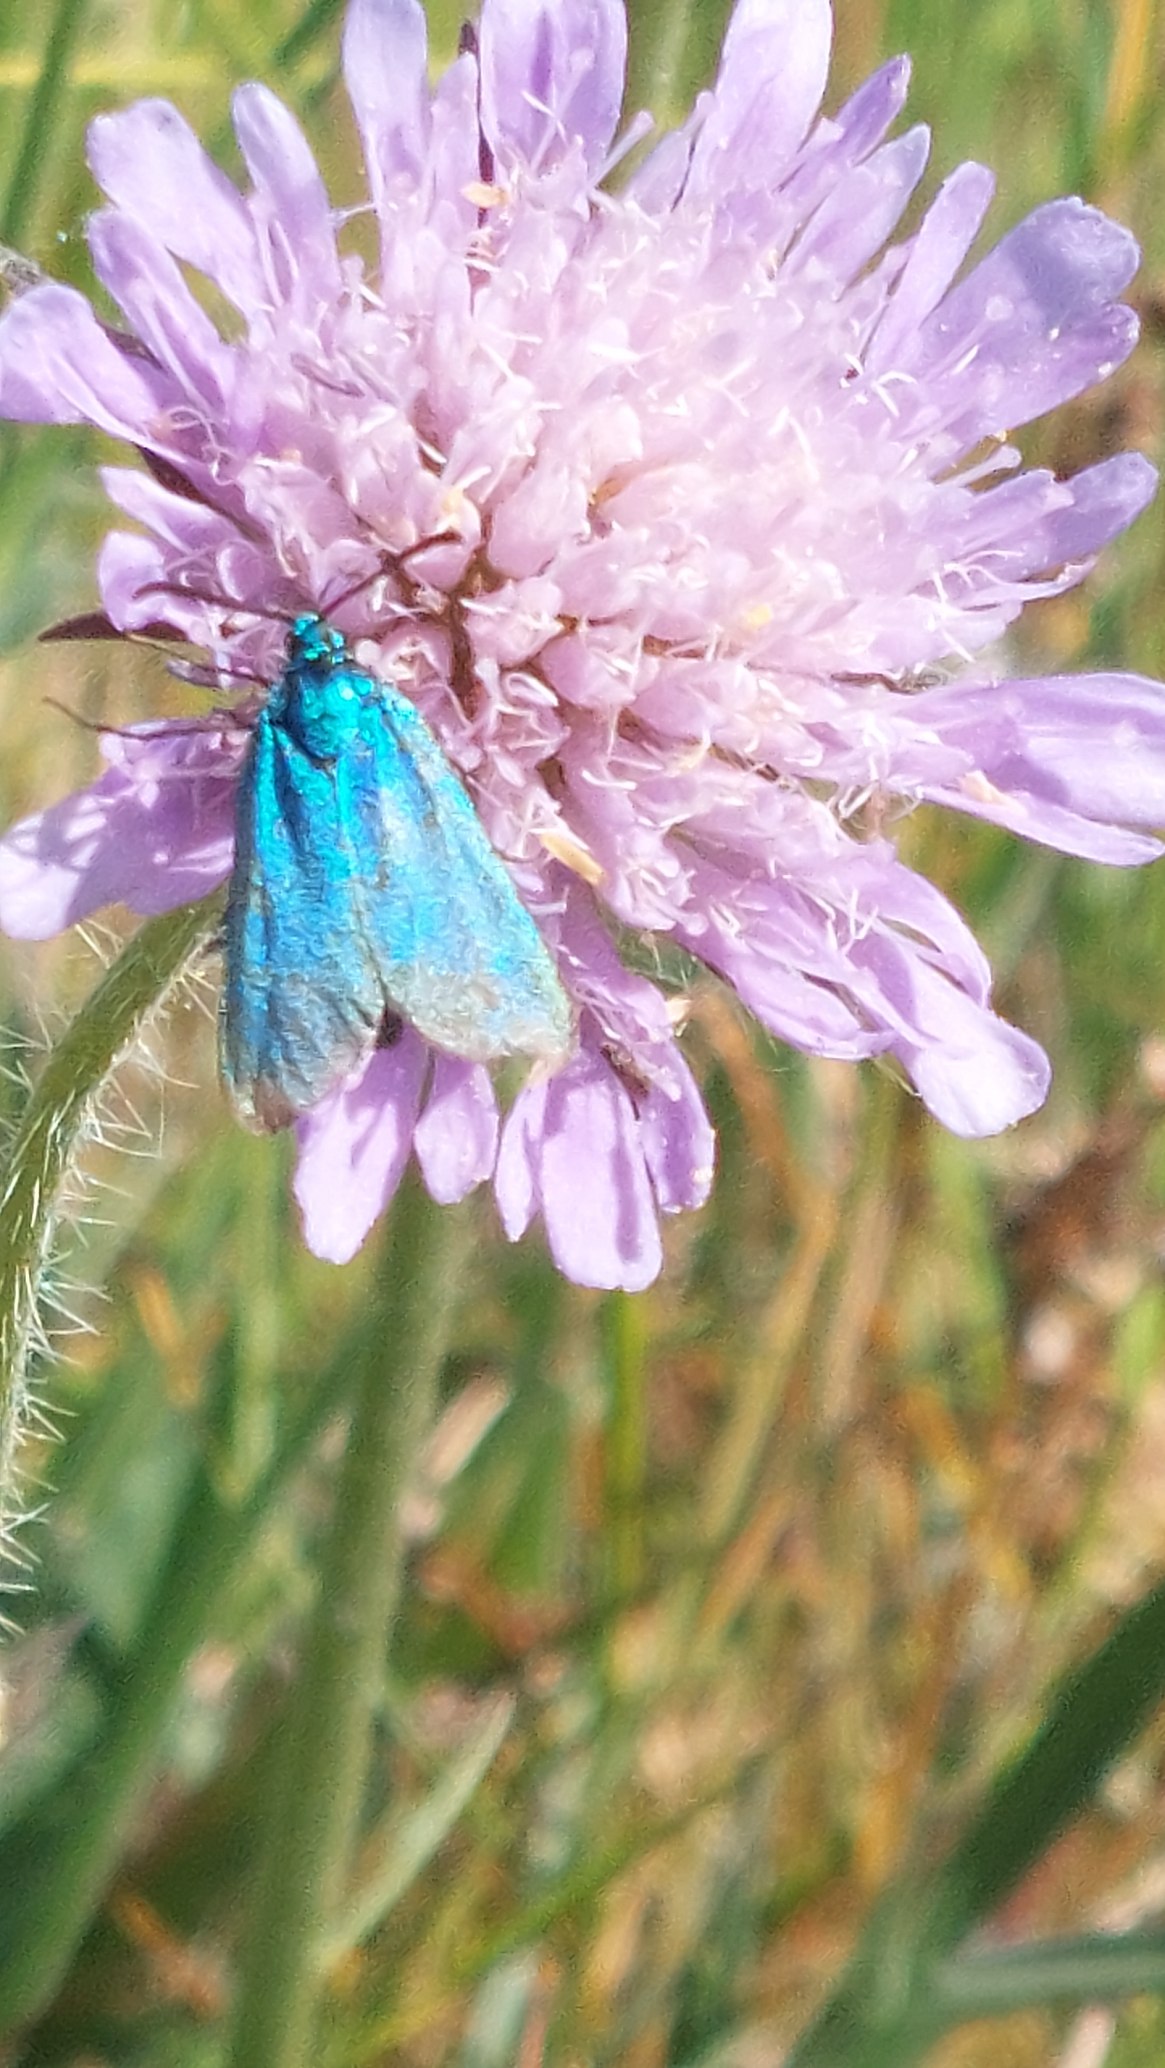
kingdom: Animalia
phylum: Arthropoda
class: Insecta
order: Lepidoptera
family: Zygaenidae
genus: Adscita
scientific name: Adscita statices
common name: Metalvinge
